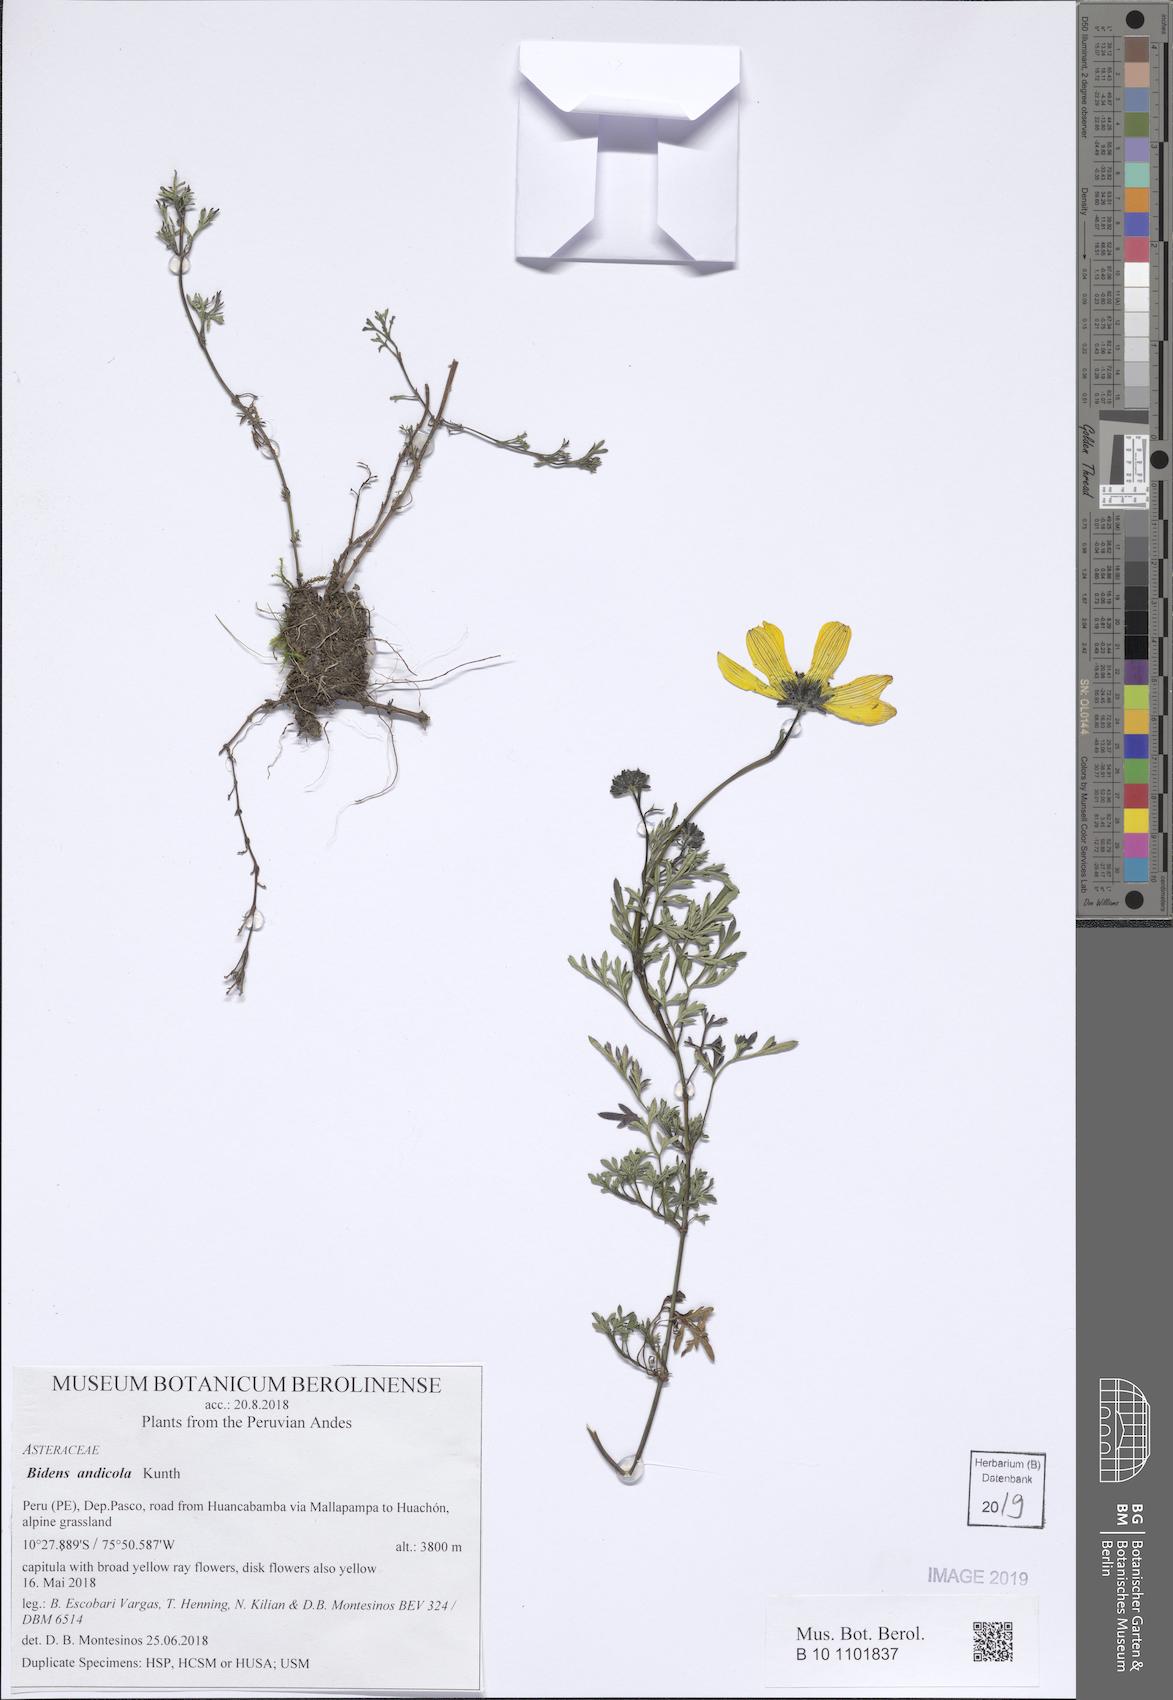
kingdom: Plantae
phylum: Tracheophyta
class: Magnoliopsida
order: Asterales
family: Asteraceae
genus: Bidens
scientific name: Bidens andicola
